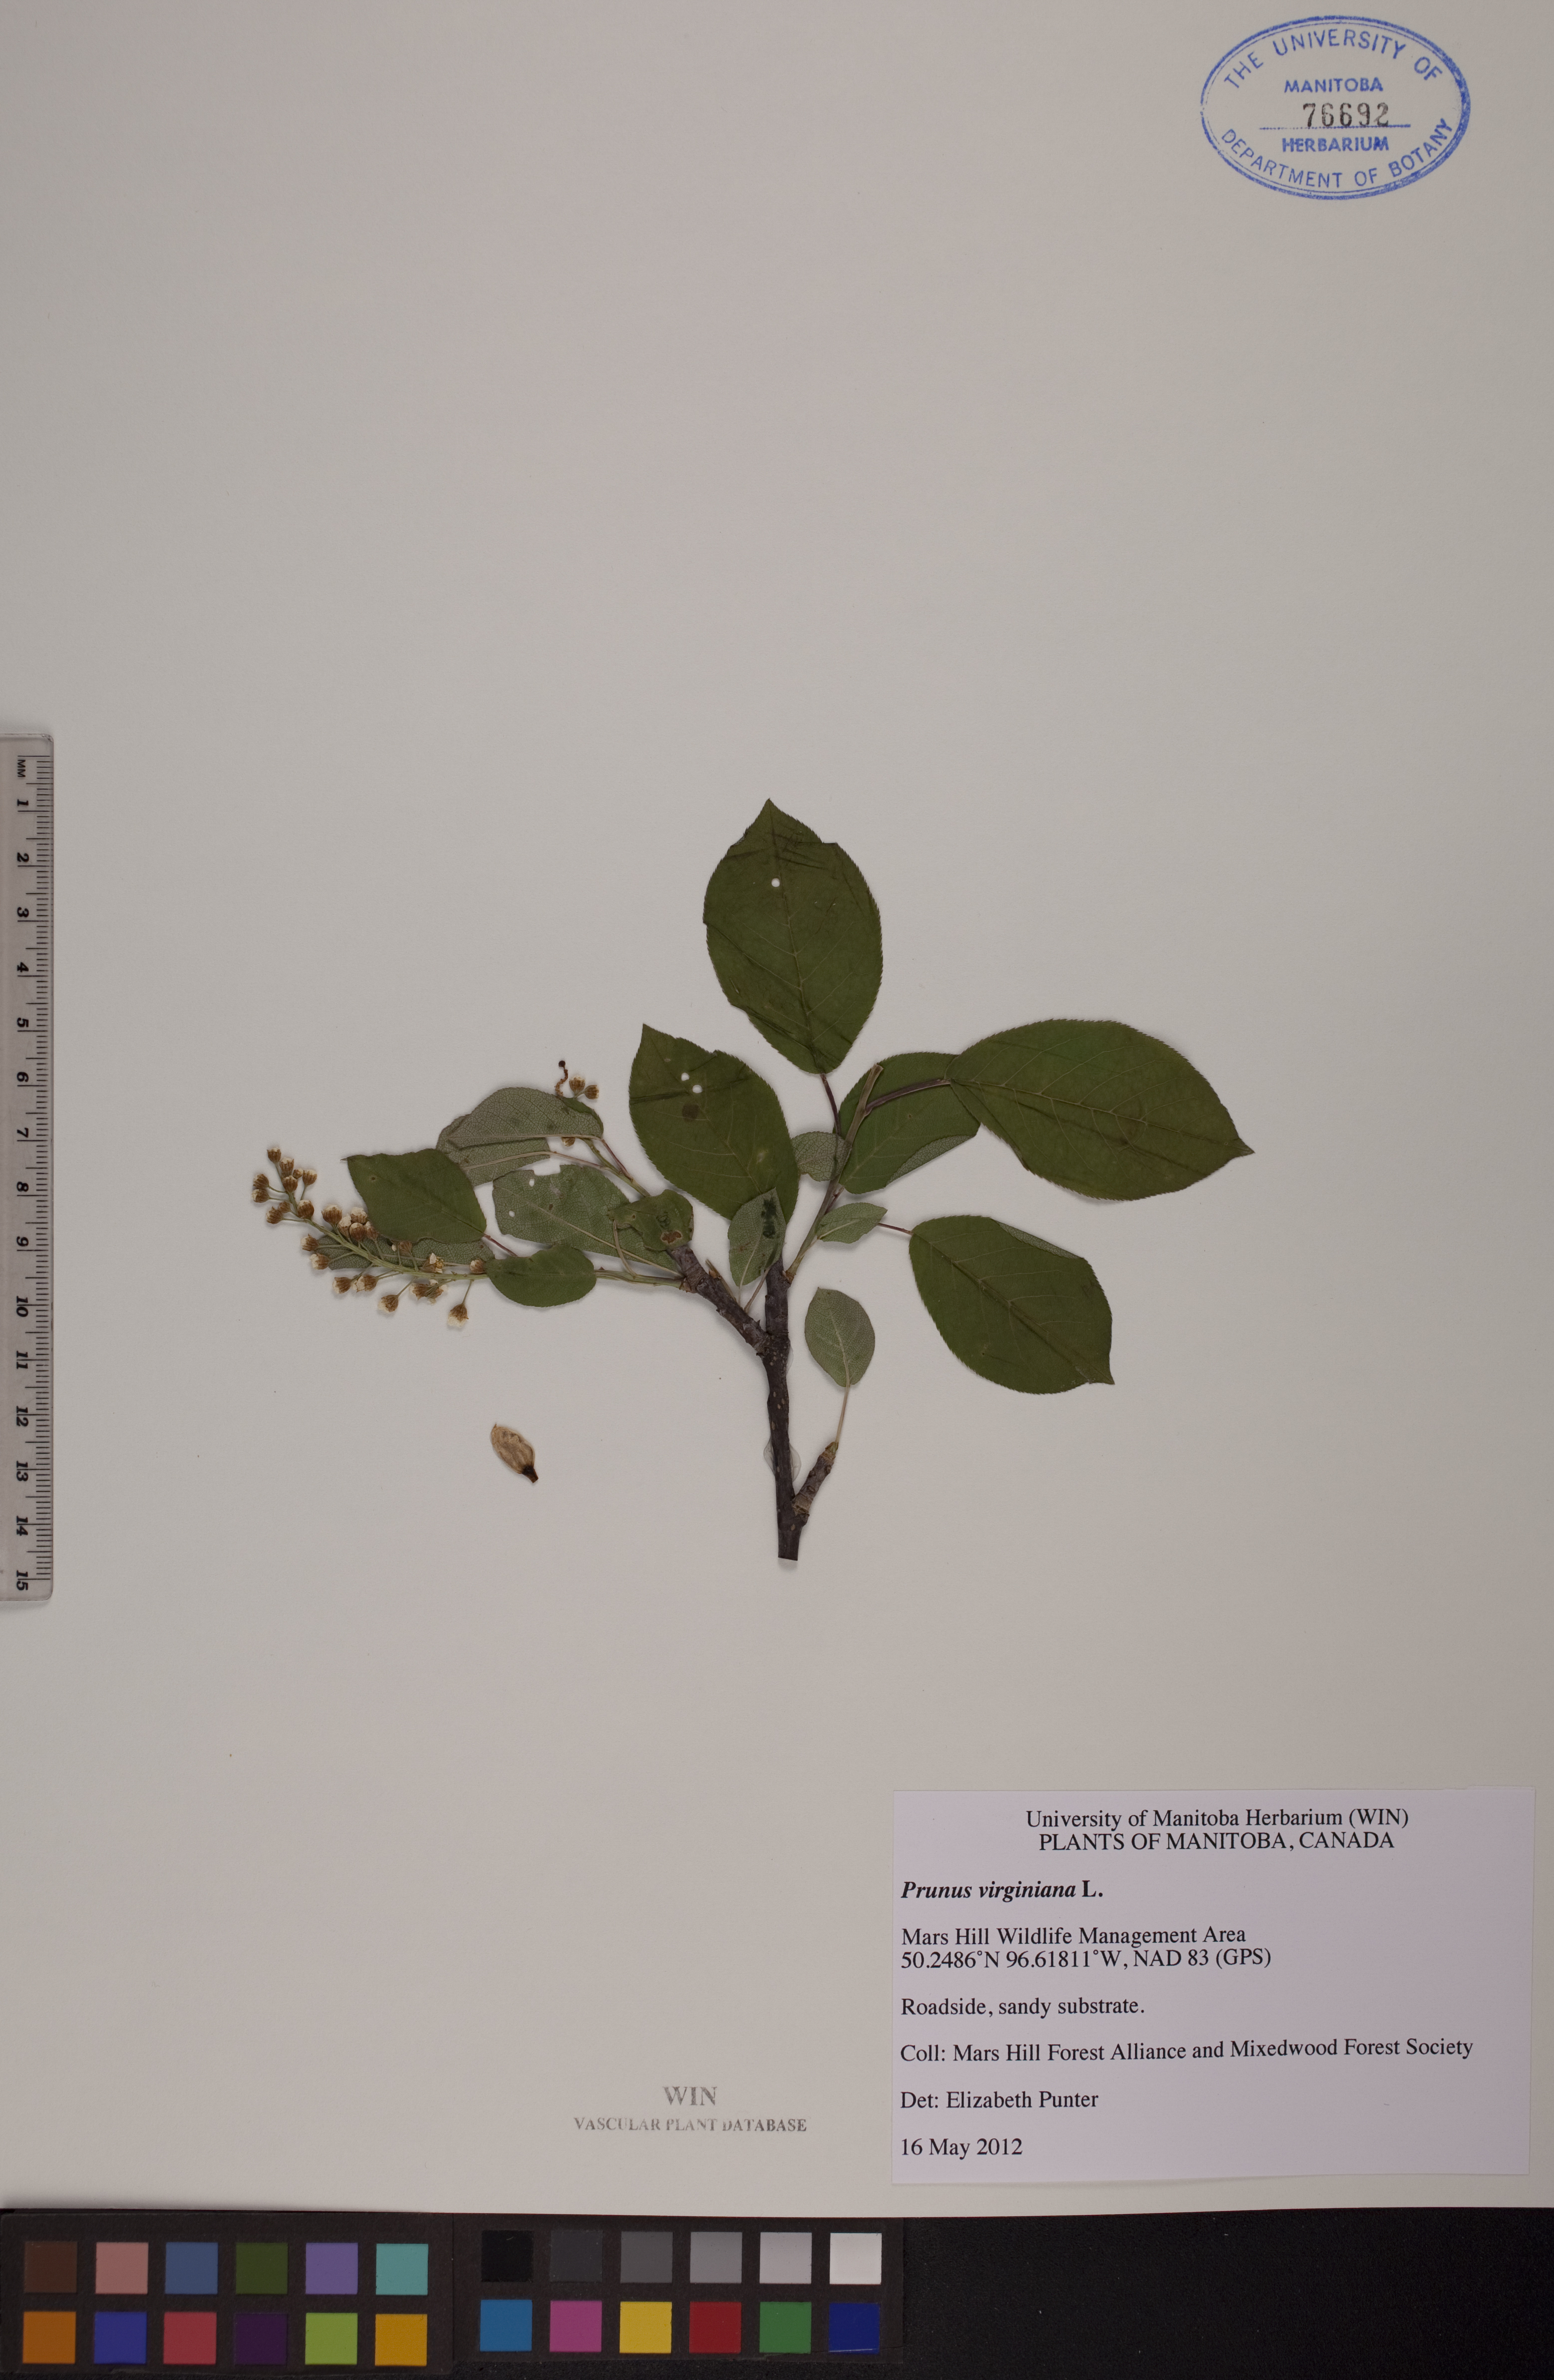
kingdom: Plantae
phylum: Tracheophyta
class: Magnoliopsida
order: Rosales
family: Rosaceae
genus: Prunus
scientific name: Prunus virginiana
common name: Chokecherry
